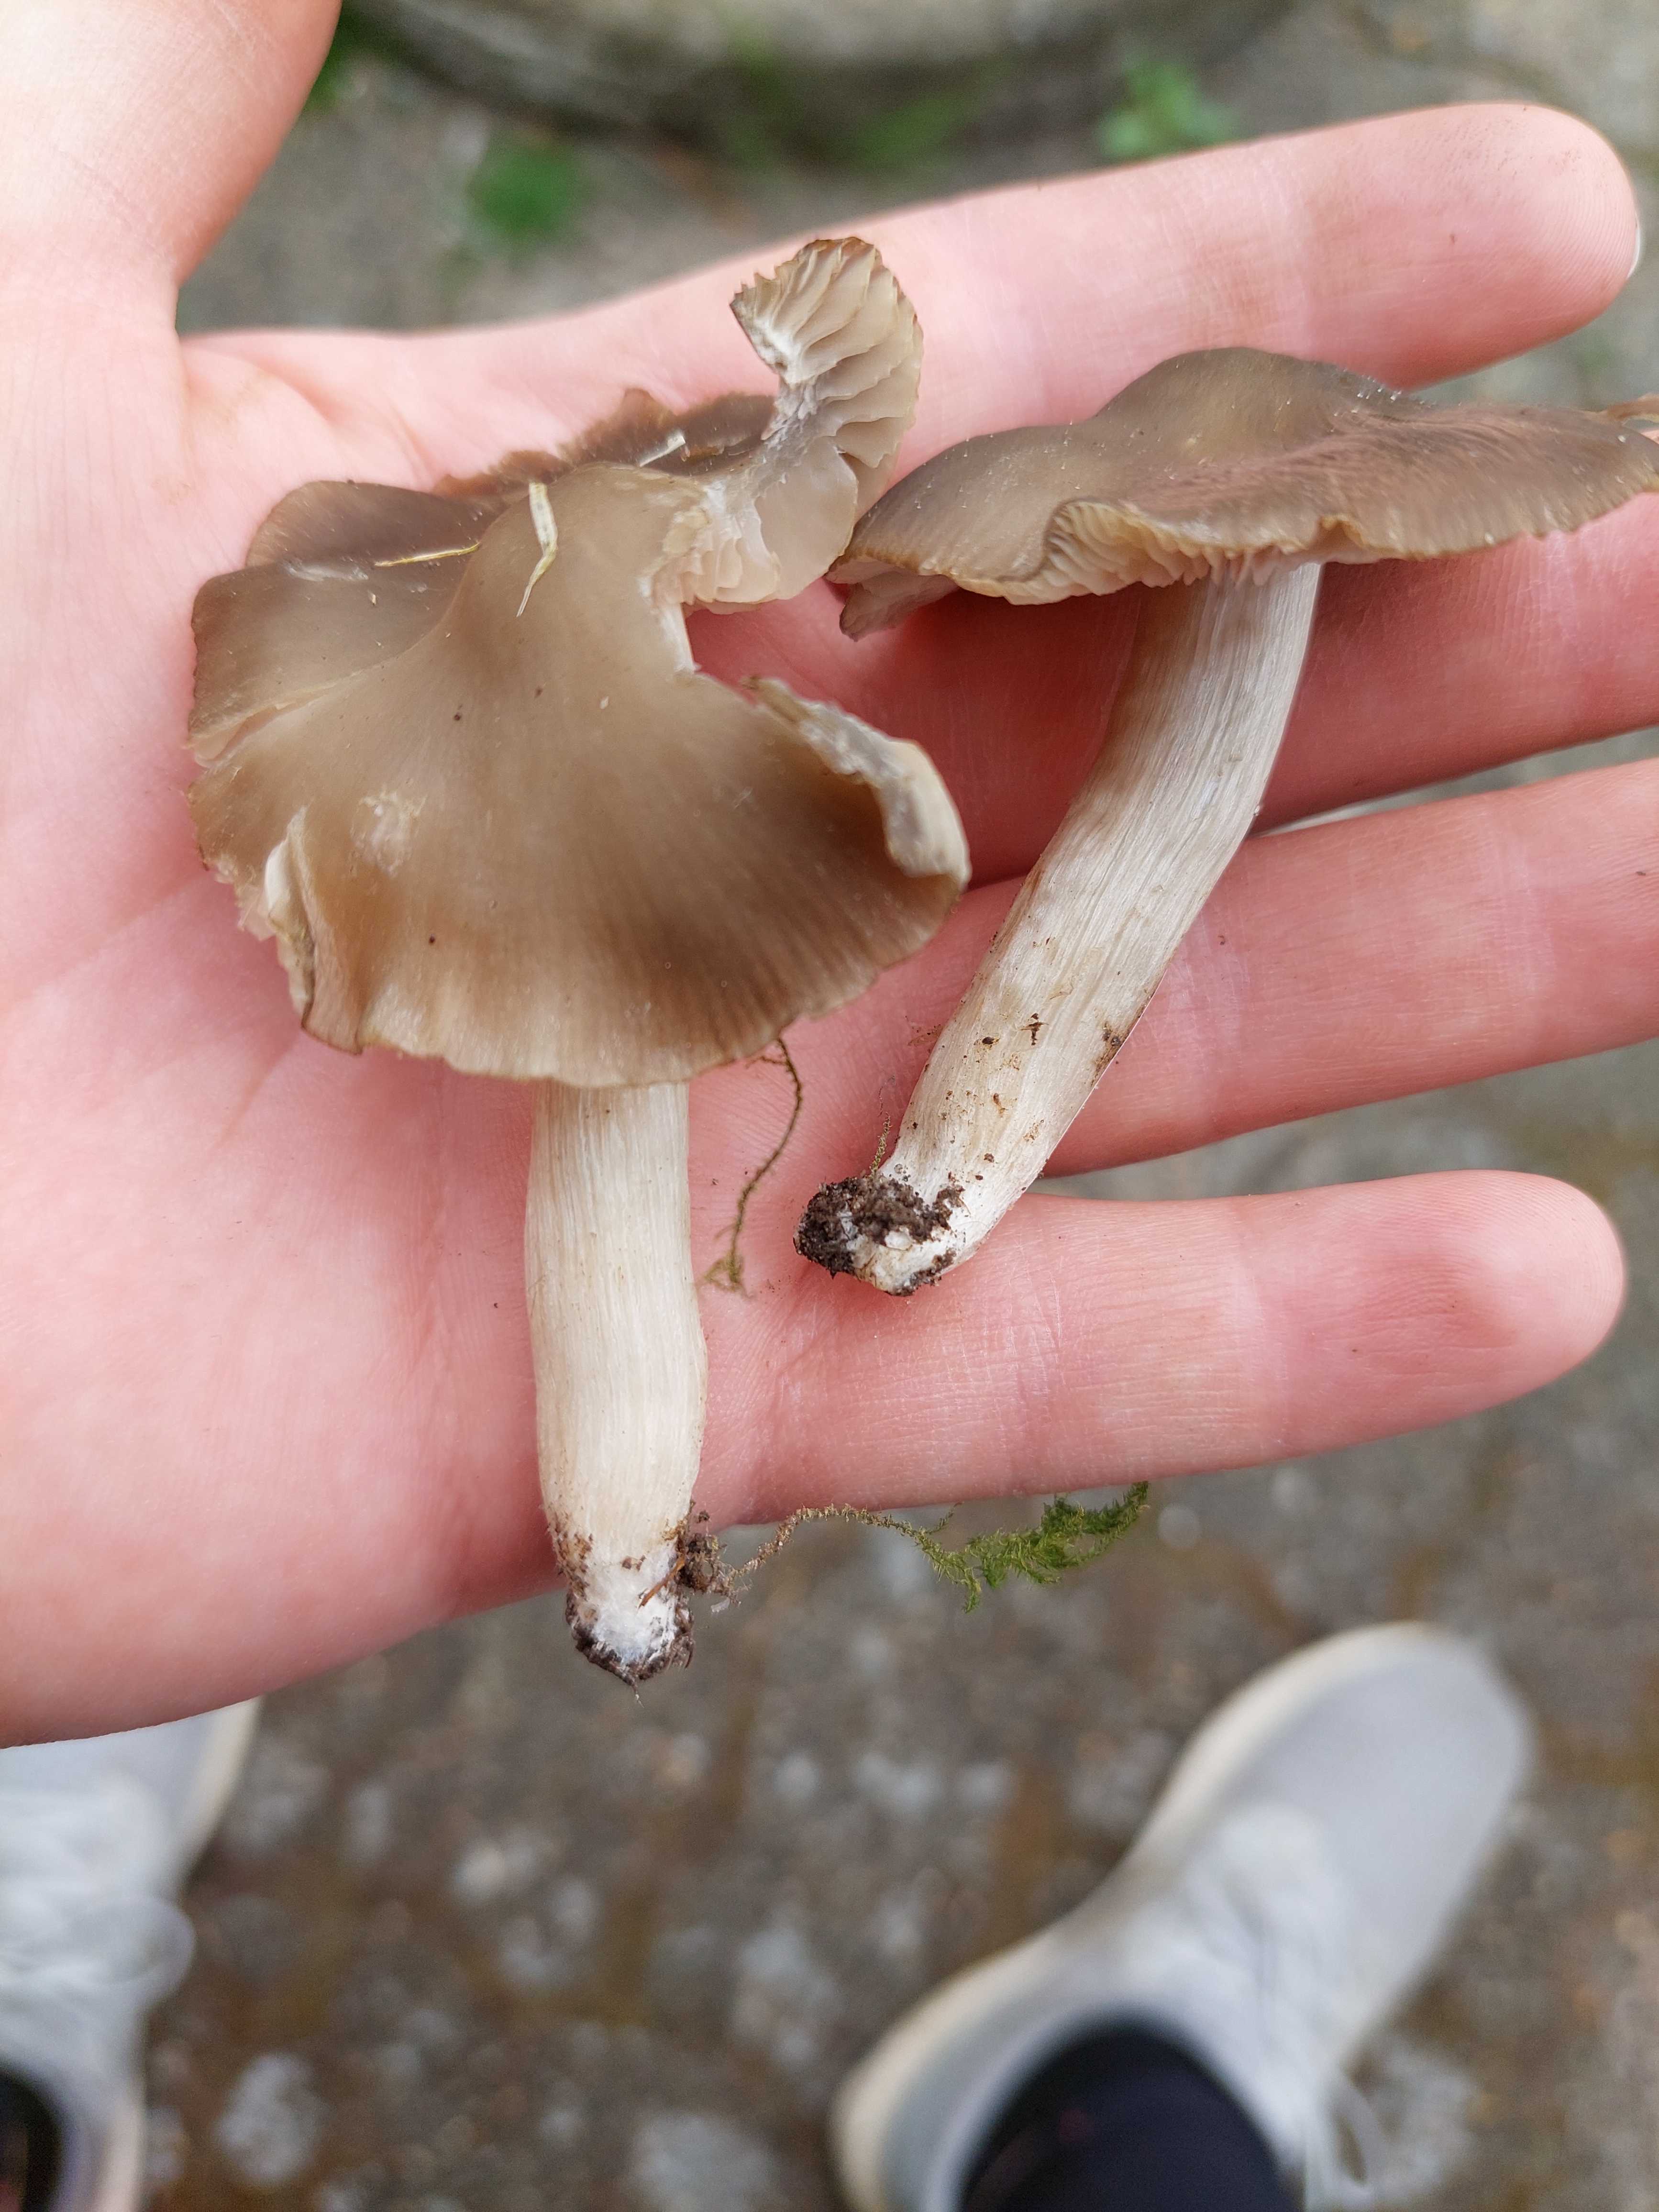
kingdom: Fungi
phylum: Basidiomycota
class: Agaricomycetes
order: Agaricales
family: Entolomataceae
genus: Entoloma
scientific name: Entoloma clypeatum
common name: flammet rødblad
